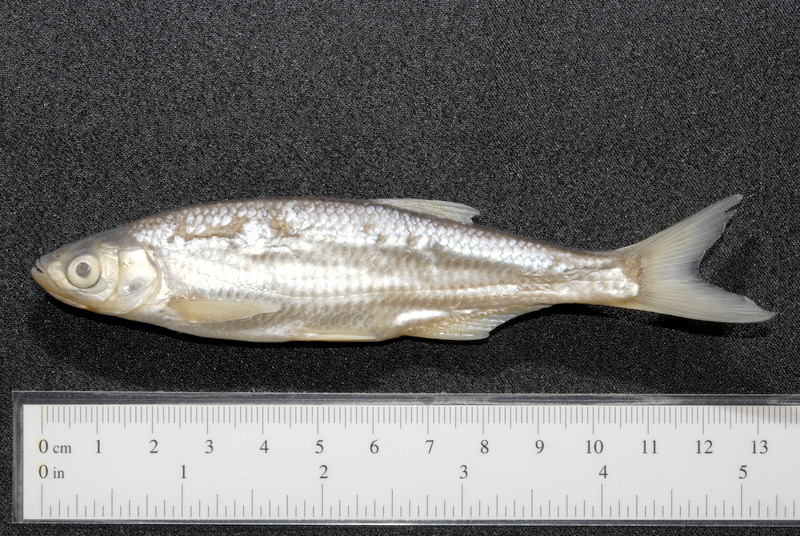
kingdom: Animalia
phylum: Chordata
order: Cypriniformes
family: Cyprinidae
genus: Alburnus
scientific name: Alburnus alburnus
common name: Bleak
